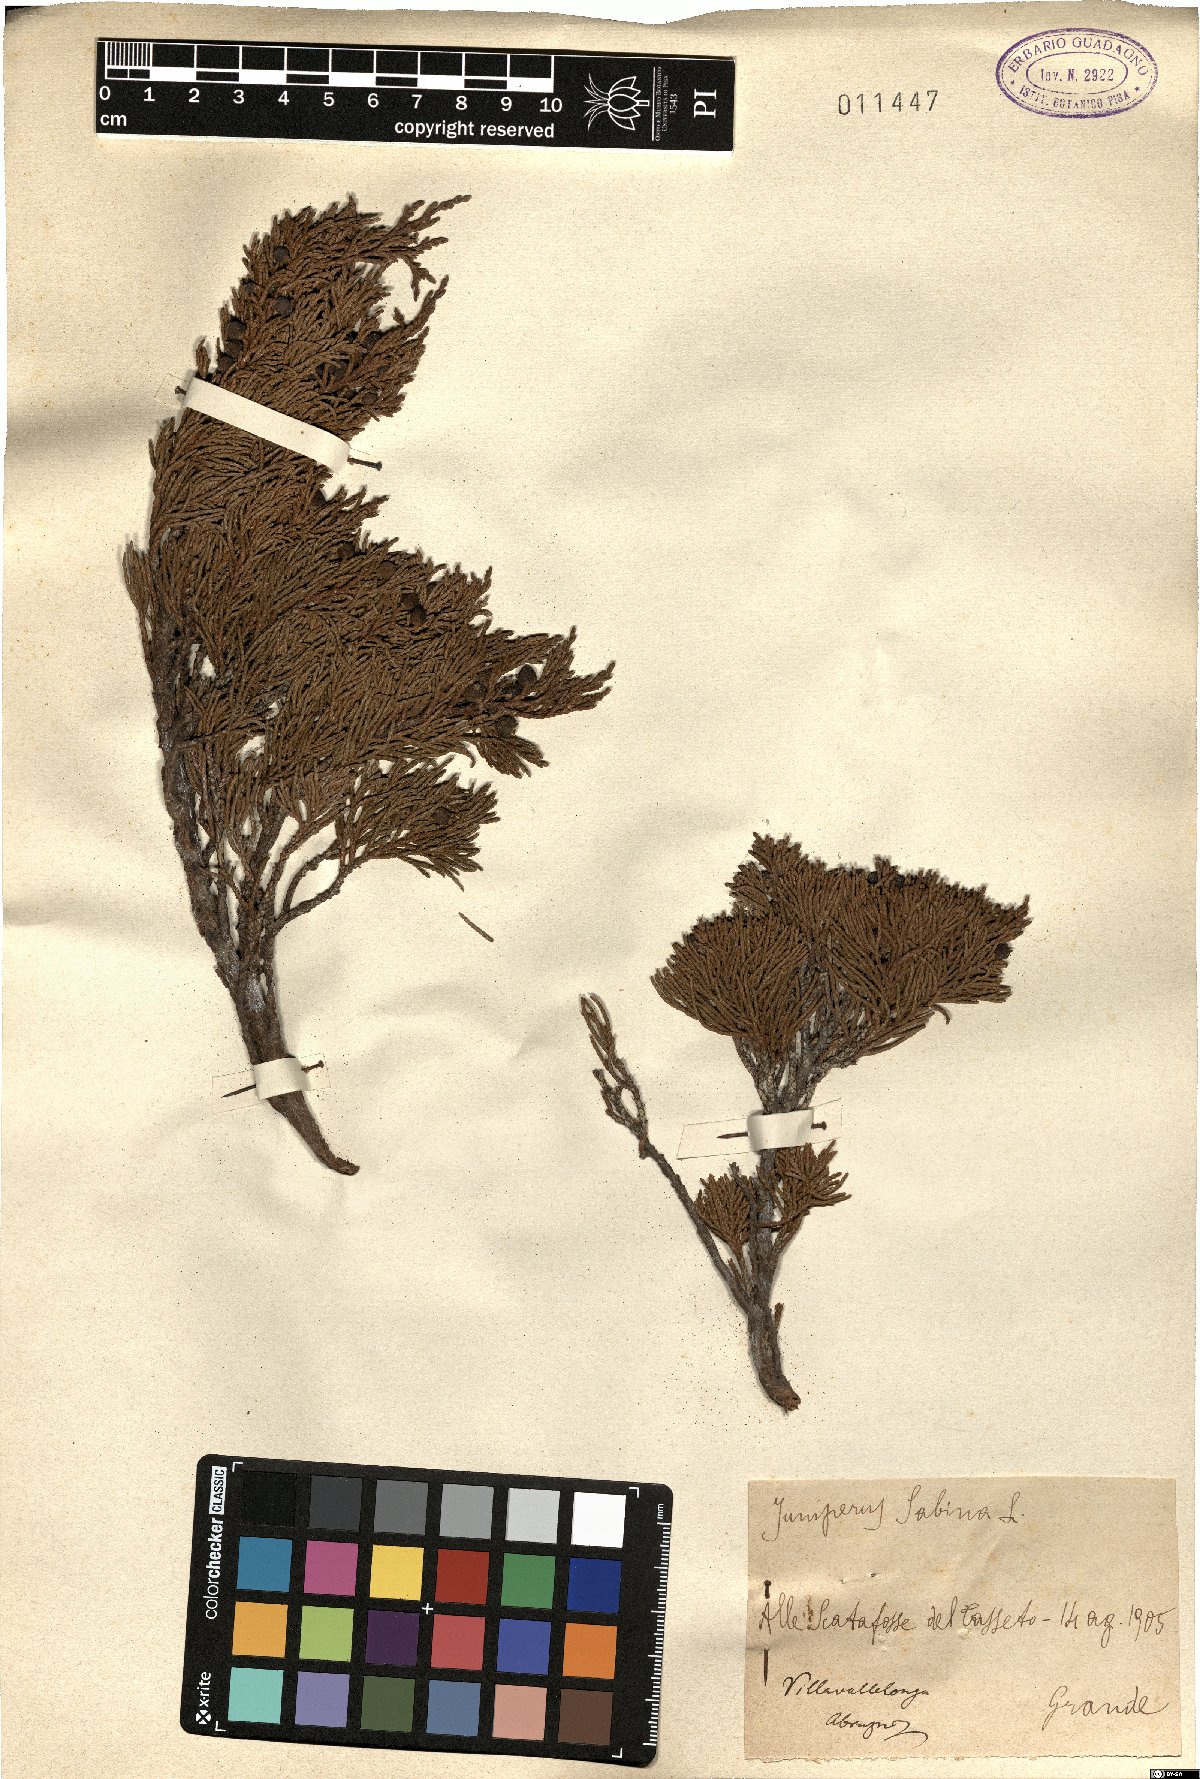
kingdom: Plantae
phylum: Tracheophyta
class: Pinopsida
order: Pinales
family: Cupressaceae
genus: Juniperus
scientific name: Juniperus sabina
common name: Savin
